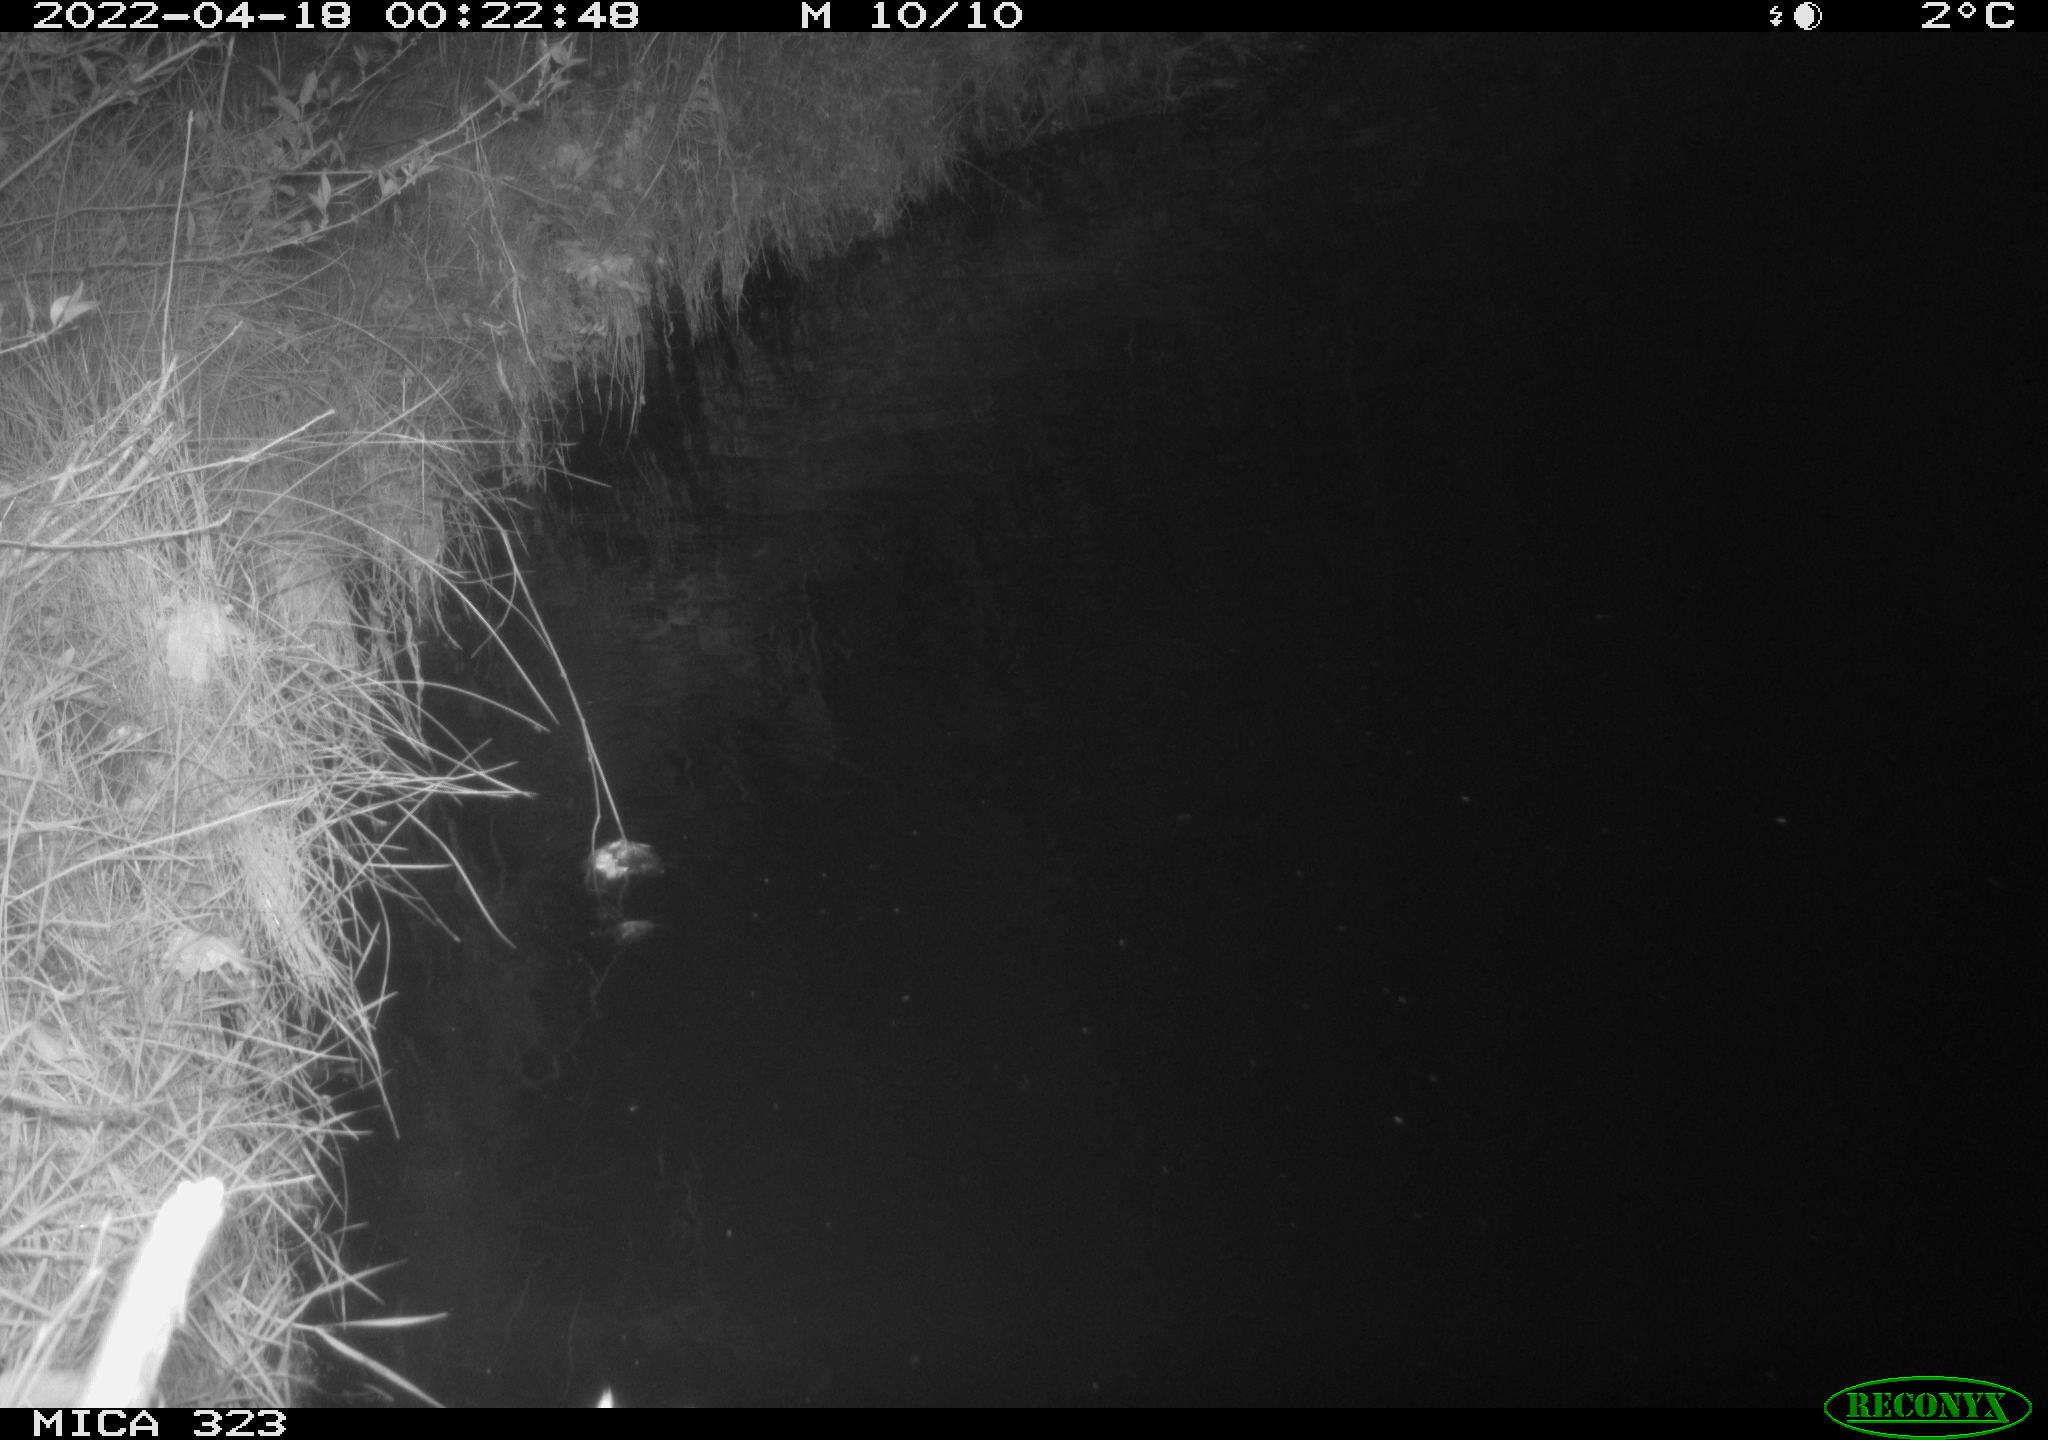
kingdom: Animalia
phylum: Chordata
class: Aves
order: Anseriformes
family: Anatidae
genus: Anas
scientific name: Anas
